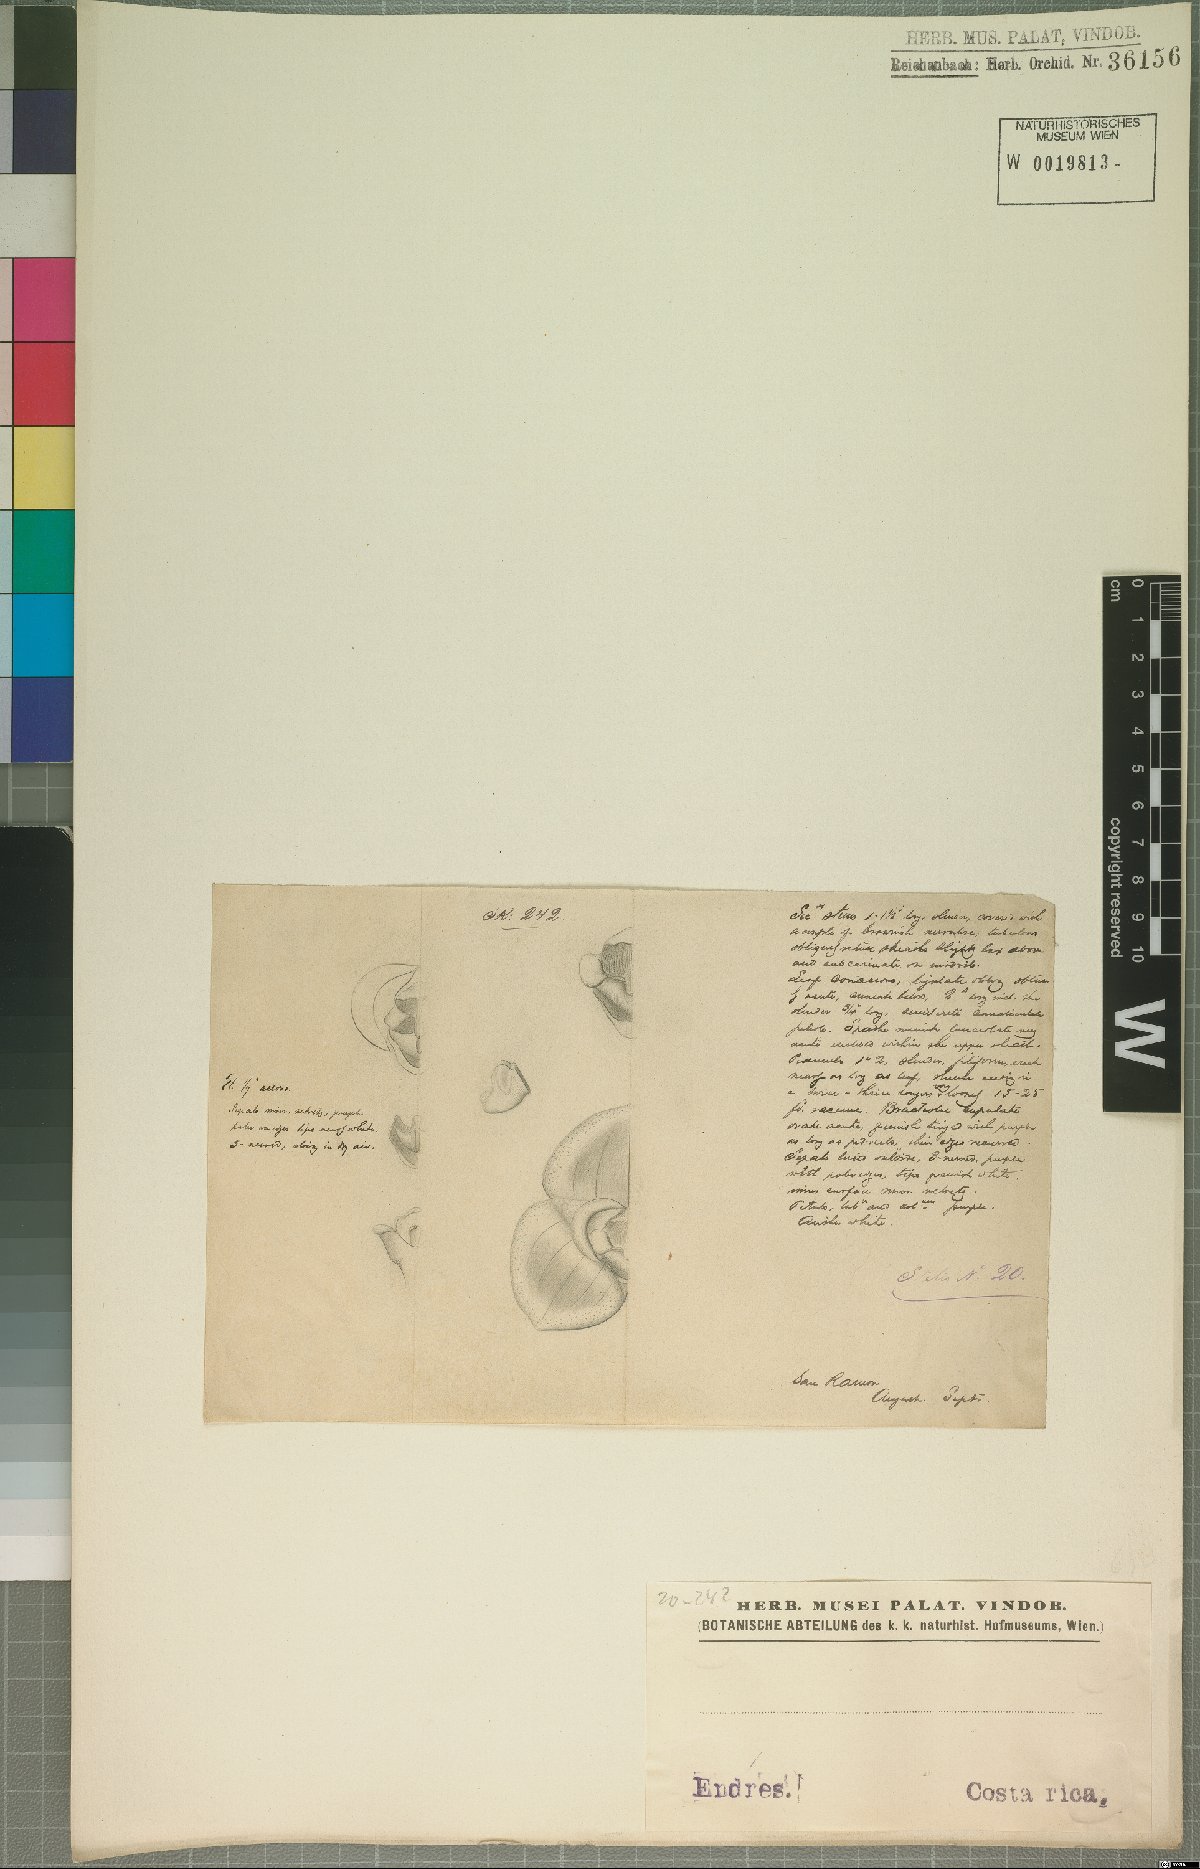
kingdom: Plantae
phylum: Tracheophyta
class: Liliopsida
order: Asparagales
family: Orchidaceae
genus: Stelis
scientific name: Stelis
